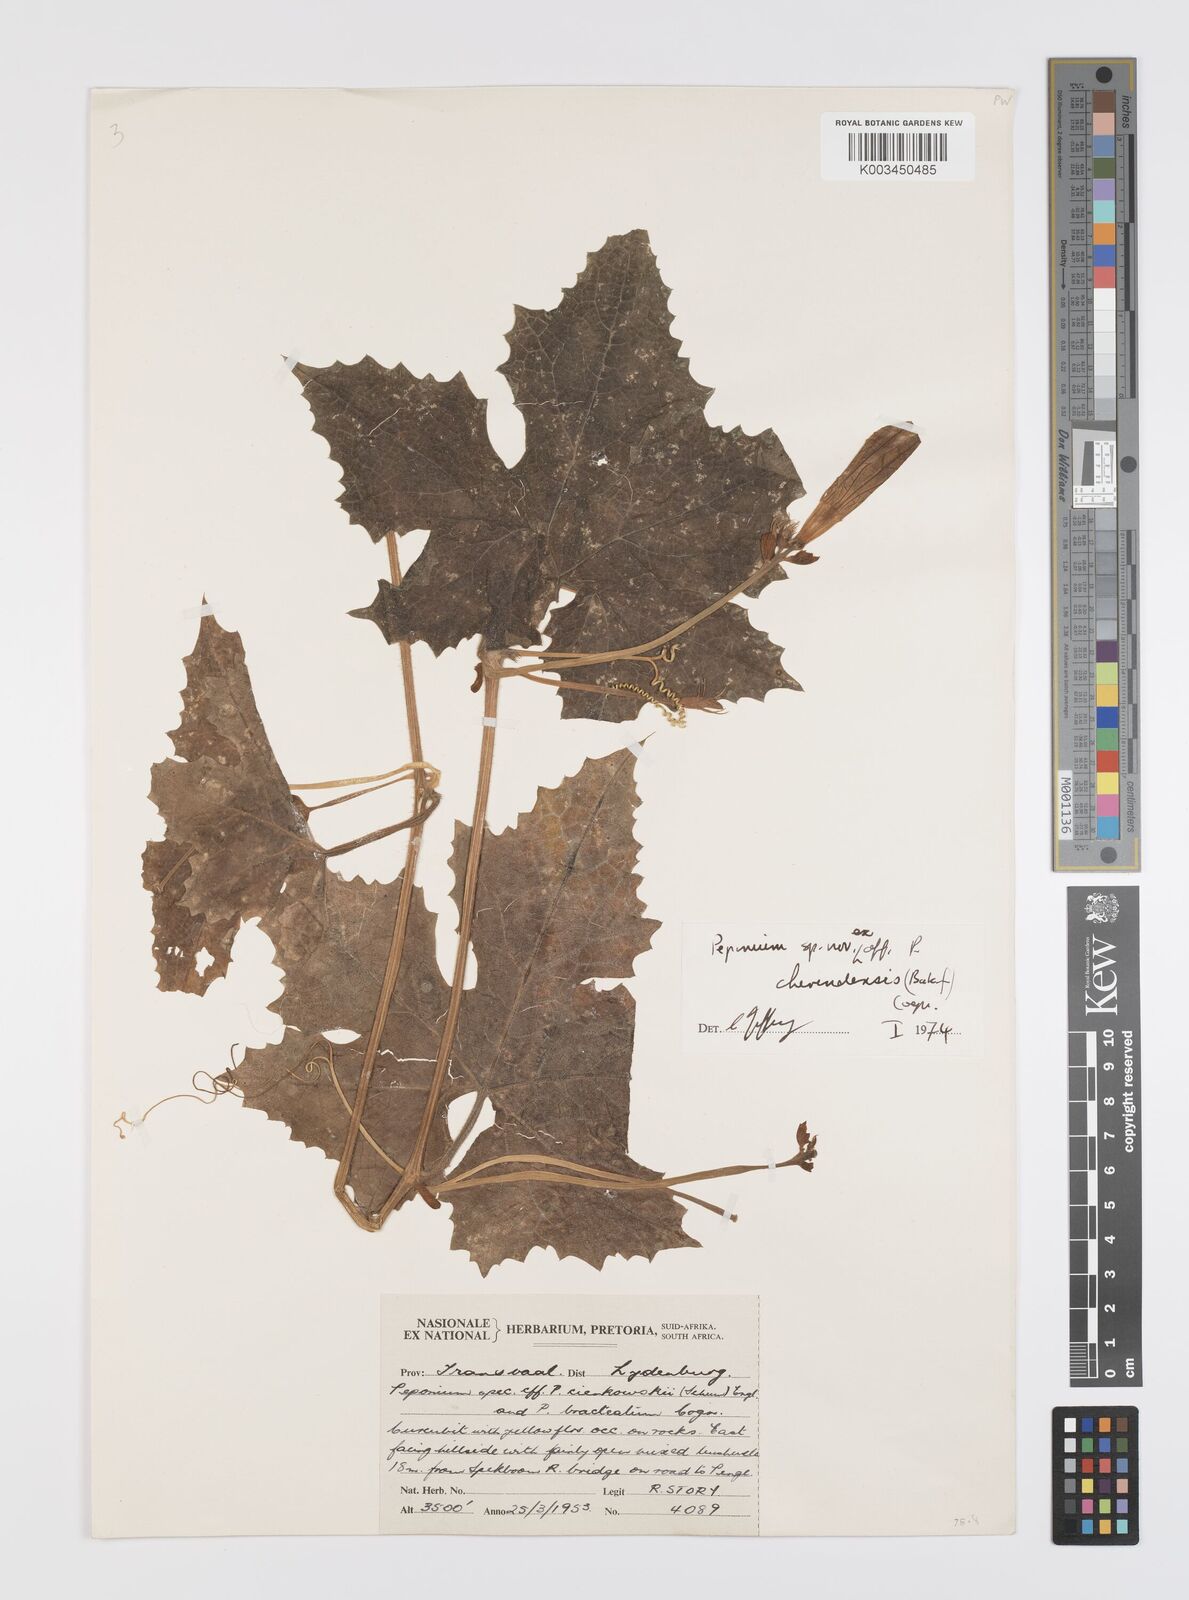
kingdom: Plantae
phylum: Tracheophyta
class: Magnoliopsida
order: Cucurbitales
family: Cucurbitaceae
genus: Peponium
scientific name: Peponium chirindense
